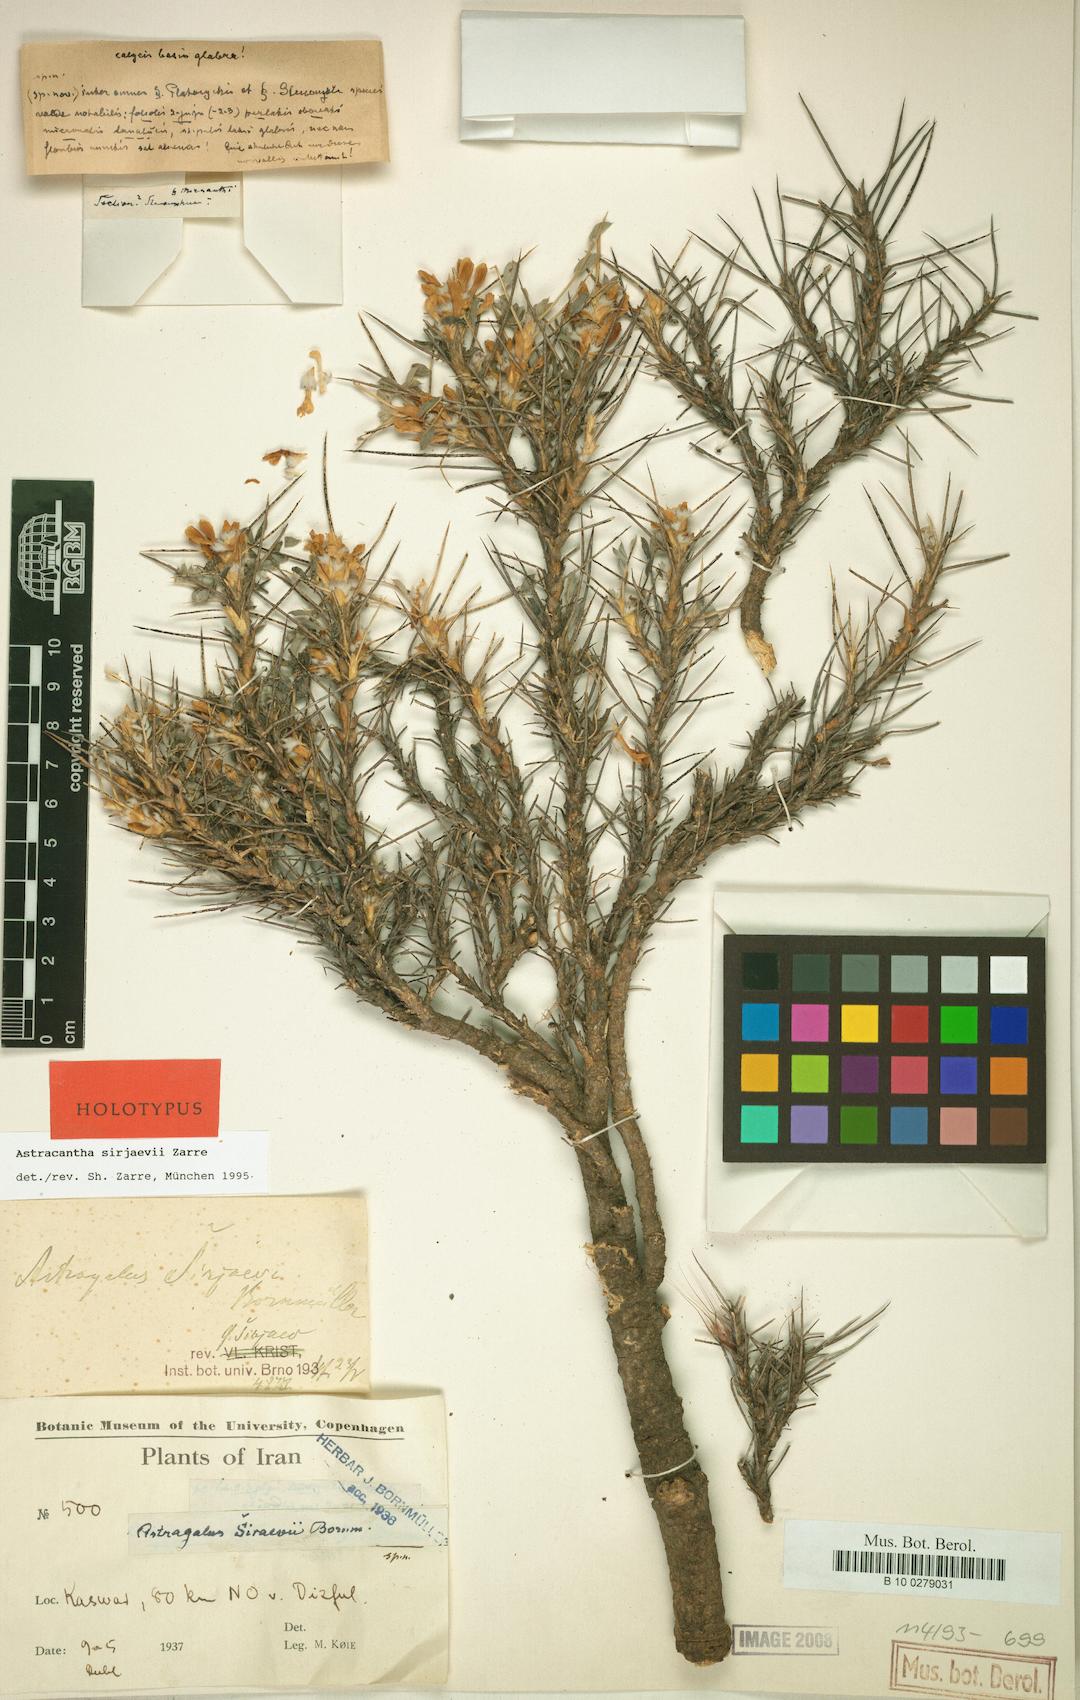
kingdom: Chromista
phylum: Cercozoa
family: Astracanthidae
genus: Astracantha
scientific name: Astracantha
